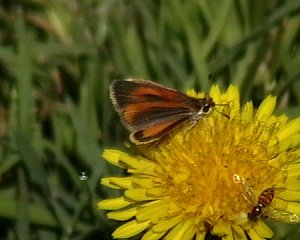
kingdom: Animalia
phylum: Arthropoda
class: Insecta
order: Lepidoptera
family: Hesperiidae
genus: Ancyloxypha
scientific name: Ancyloxypha numitor
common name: Least Skipper
